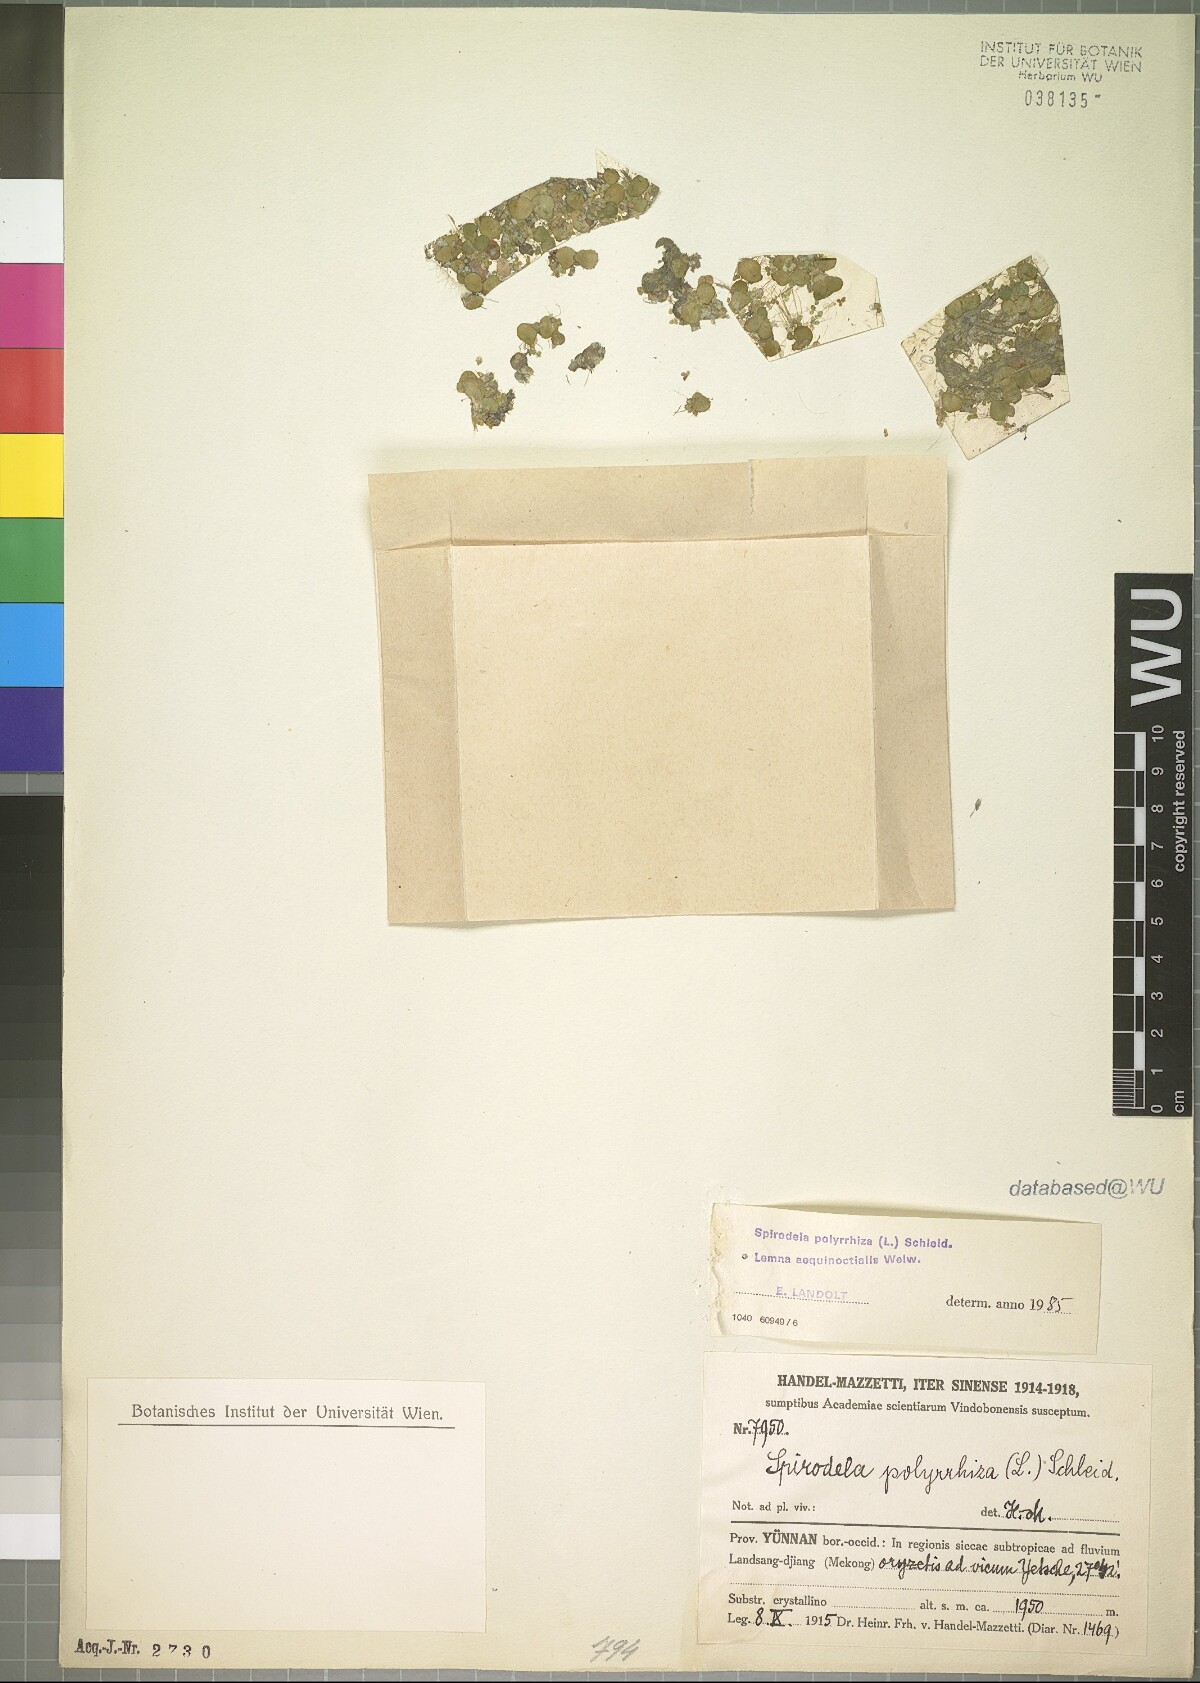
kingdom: Plantae
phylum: Tracheophyta
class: Liliopsida
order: Alismatales
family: Araceae
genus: Lemna
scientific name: Lemna aequinoctialis
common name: Duckweed
